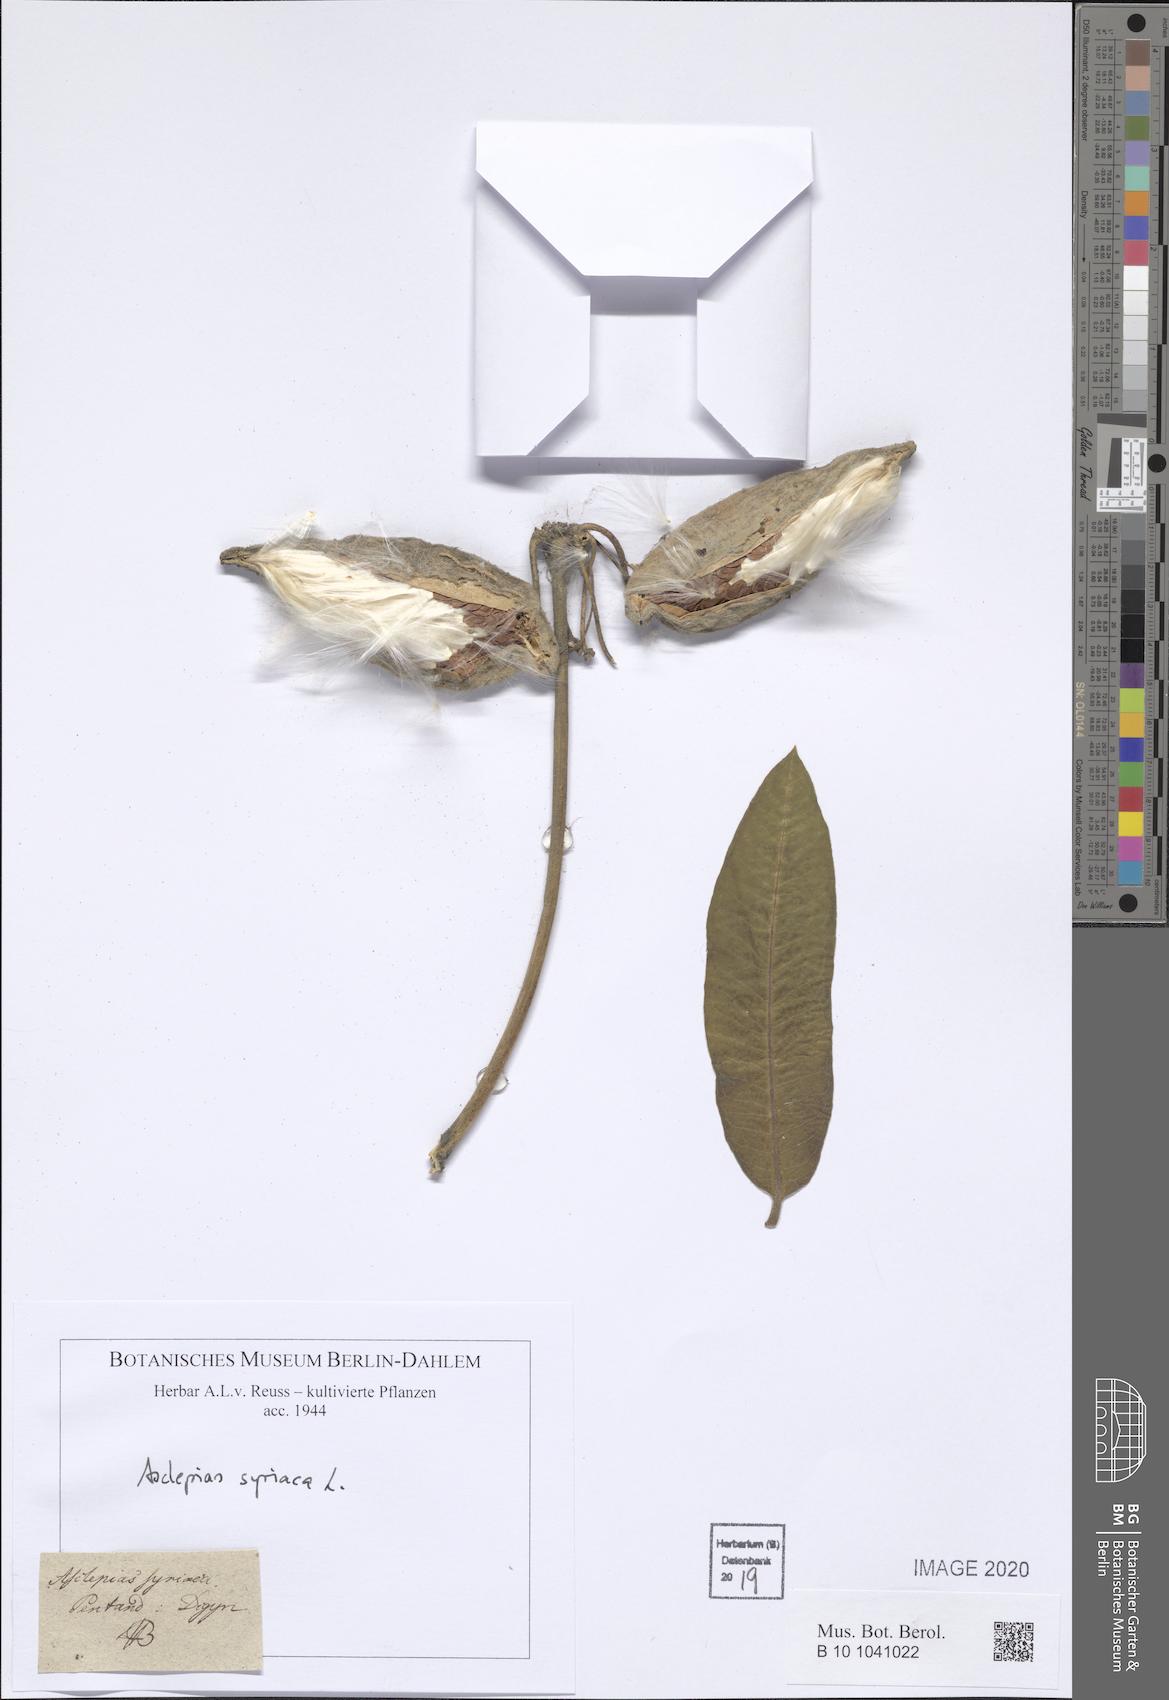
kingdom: Plantae
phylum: Tracheophyta
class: Magnoliopsida
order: Gentianales
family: Apocynaceae
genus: Asclepias
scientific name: Asclepias syriaca
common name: Common milkweed
